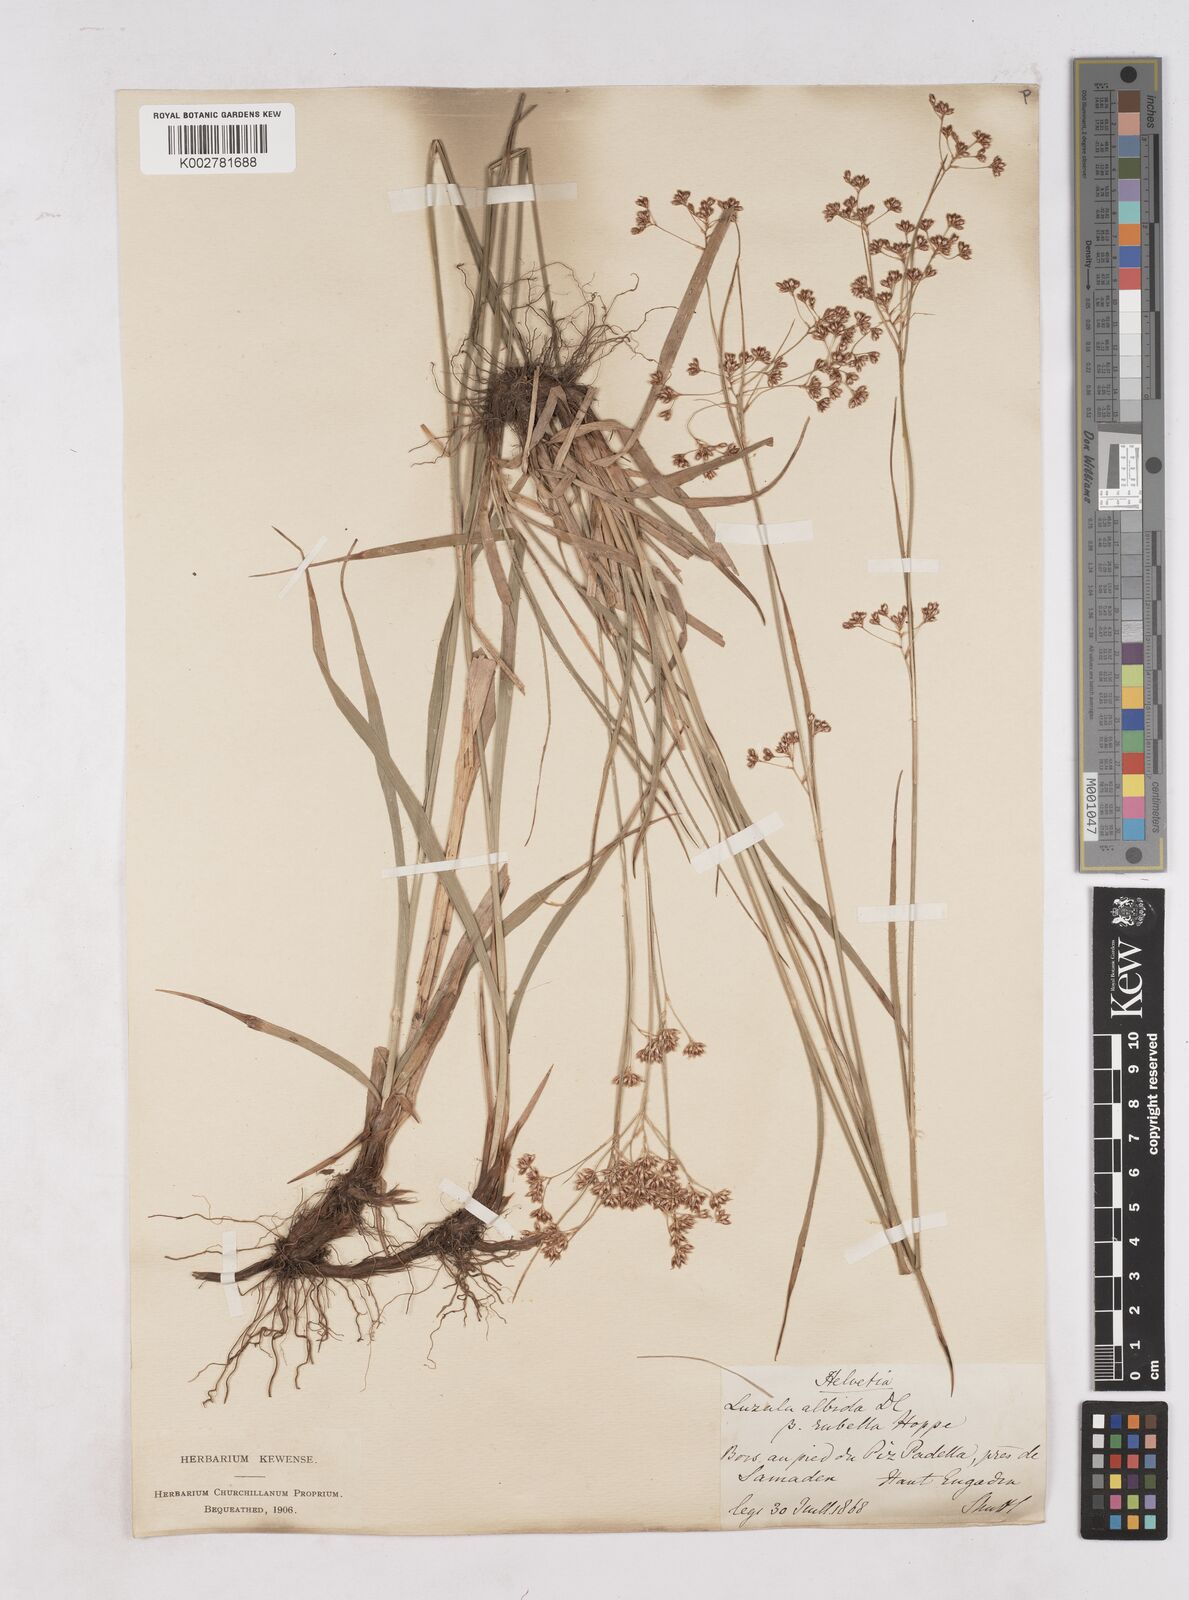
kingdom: Plantae
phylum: Tracheophyta
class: Liliopsida
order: Poales
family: Juncaceae
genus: Luzula
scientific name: Luzula luzuloides
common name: White wood-rush
